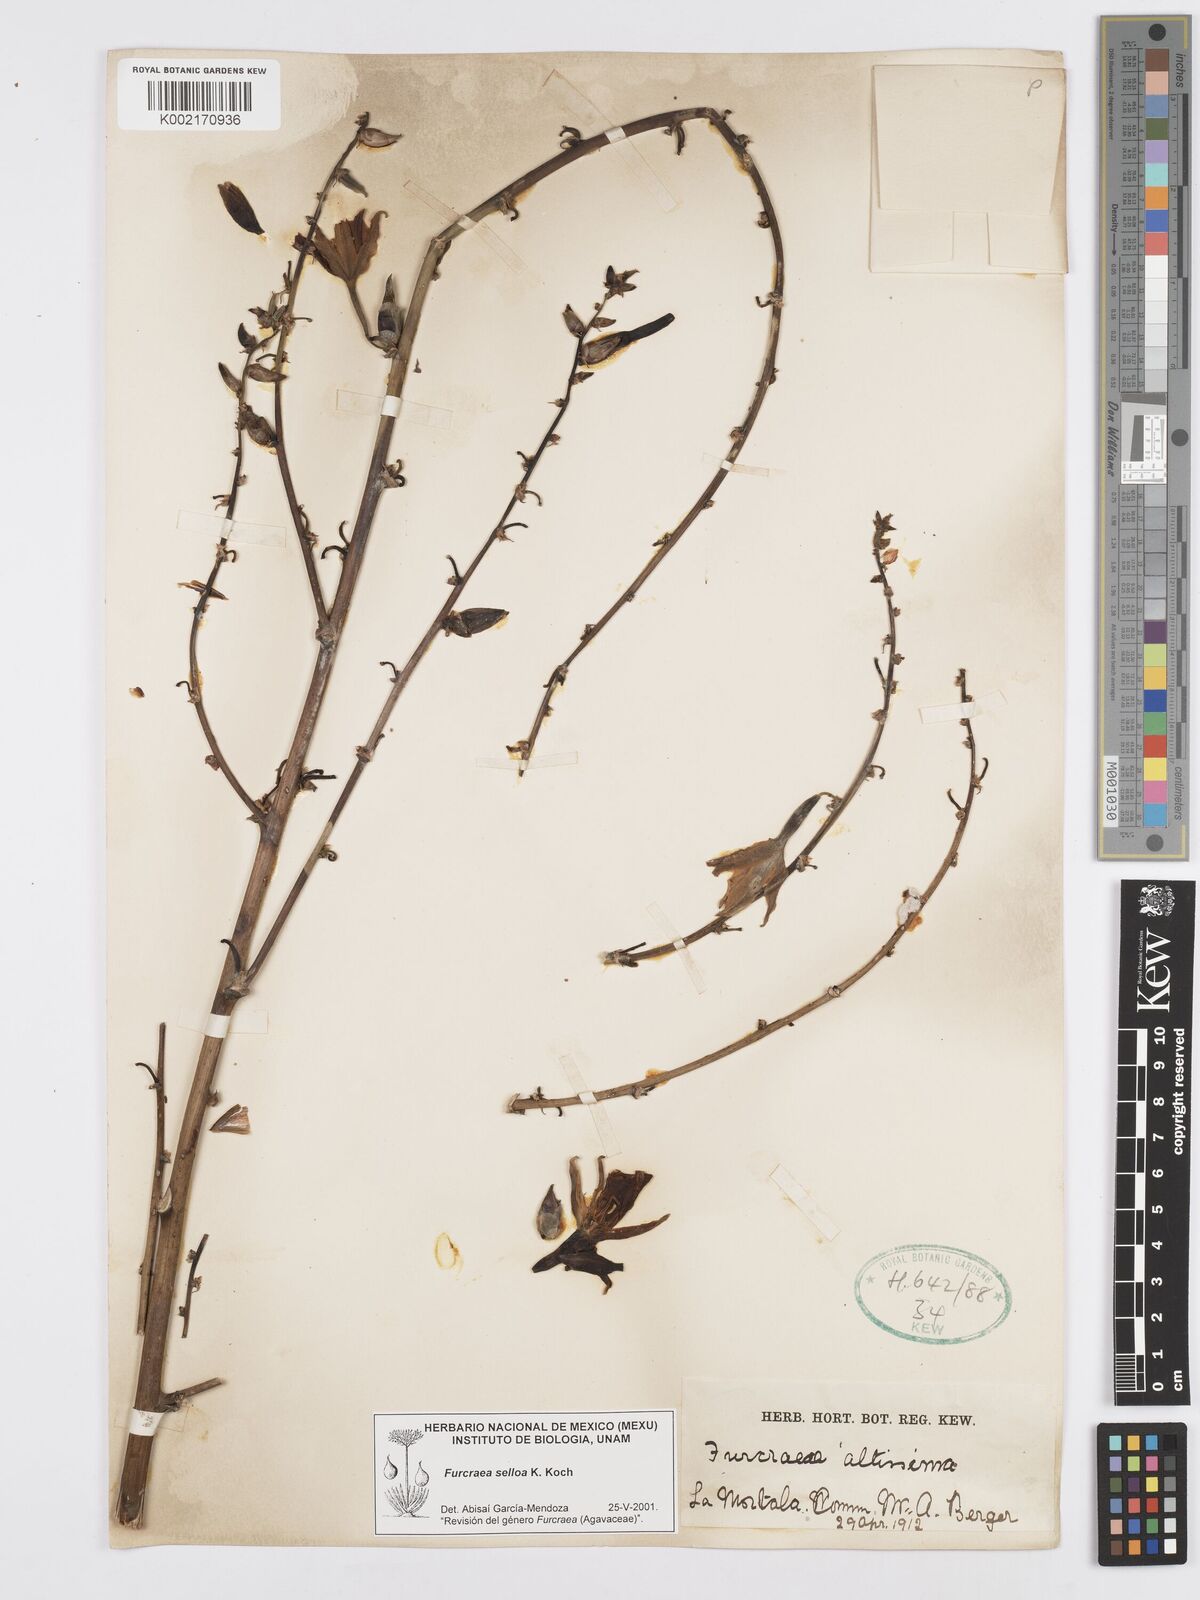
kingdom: Plantae
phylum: Tracheophyta
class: Liliopsida
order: Asparagales
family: Asparagaceae
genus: Furcraea
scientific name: Furcraea selloana
